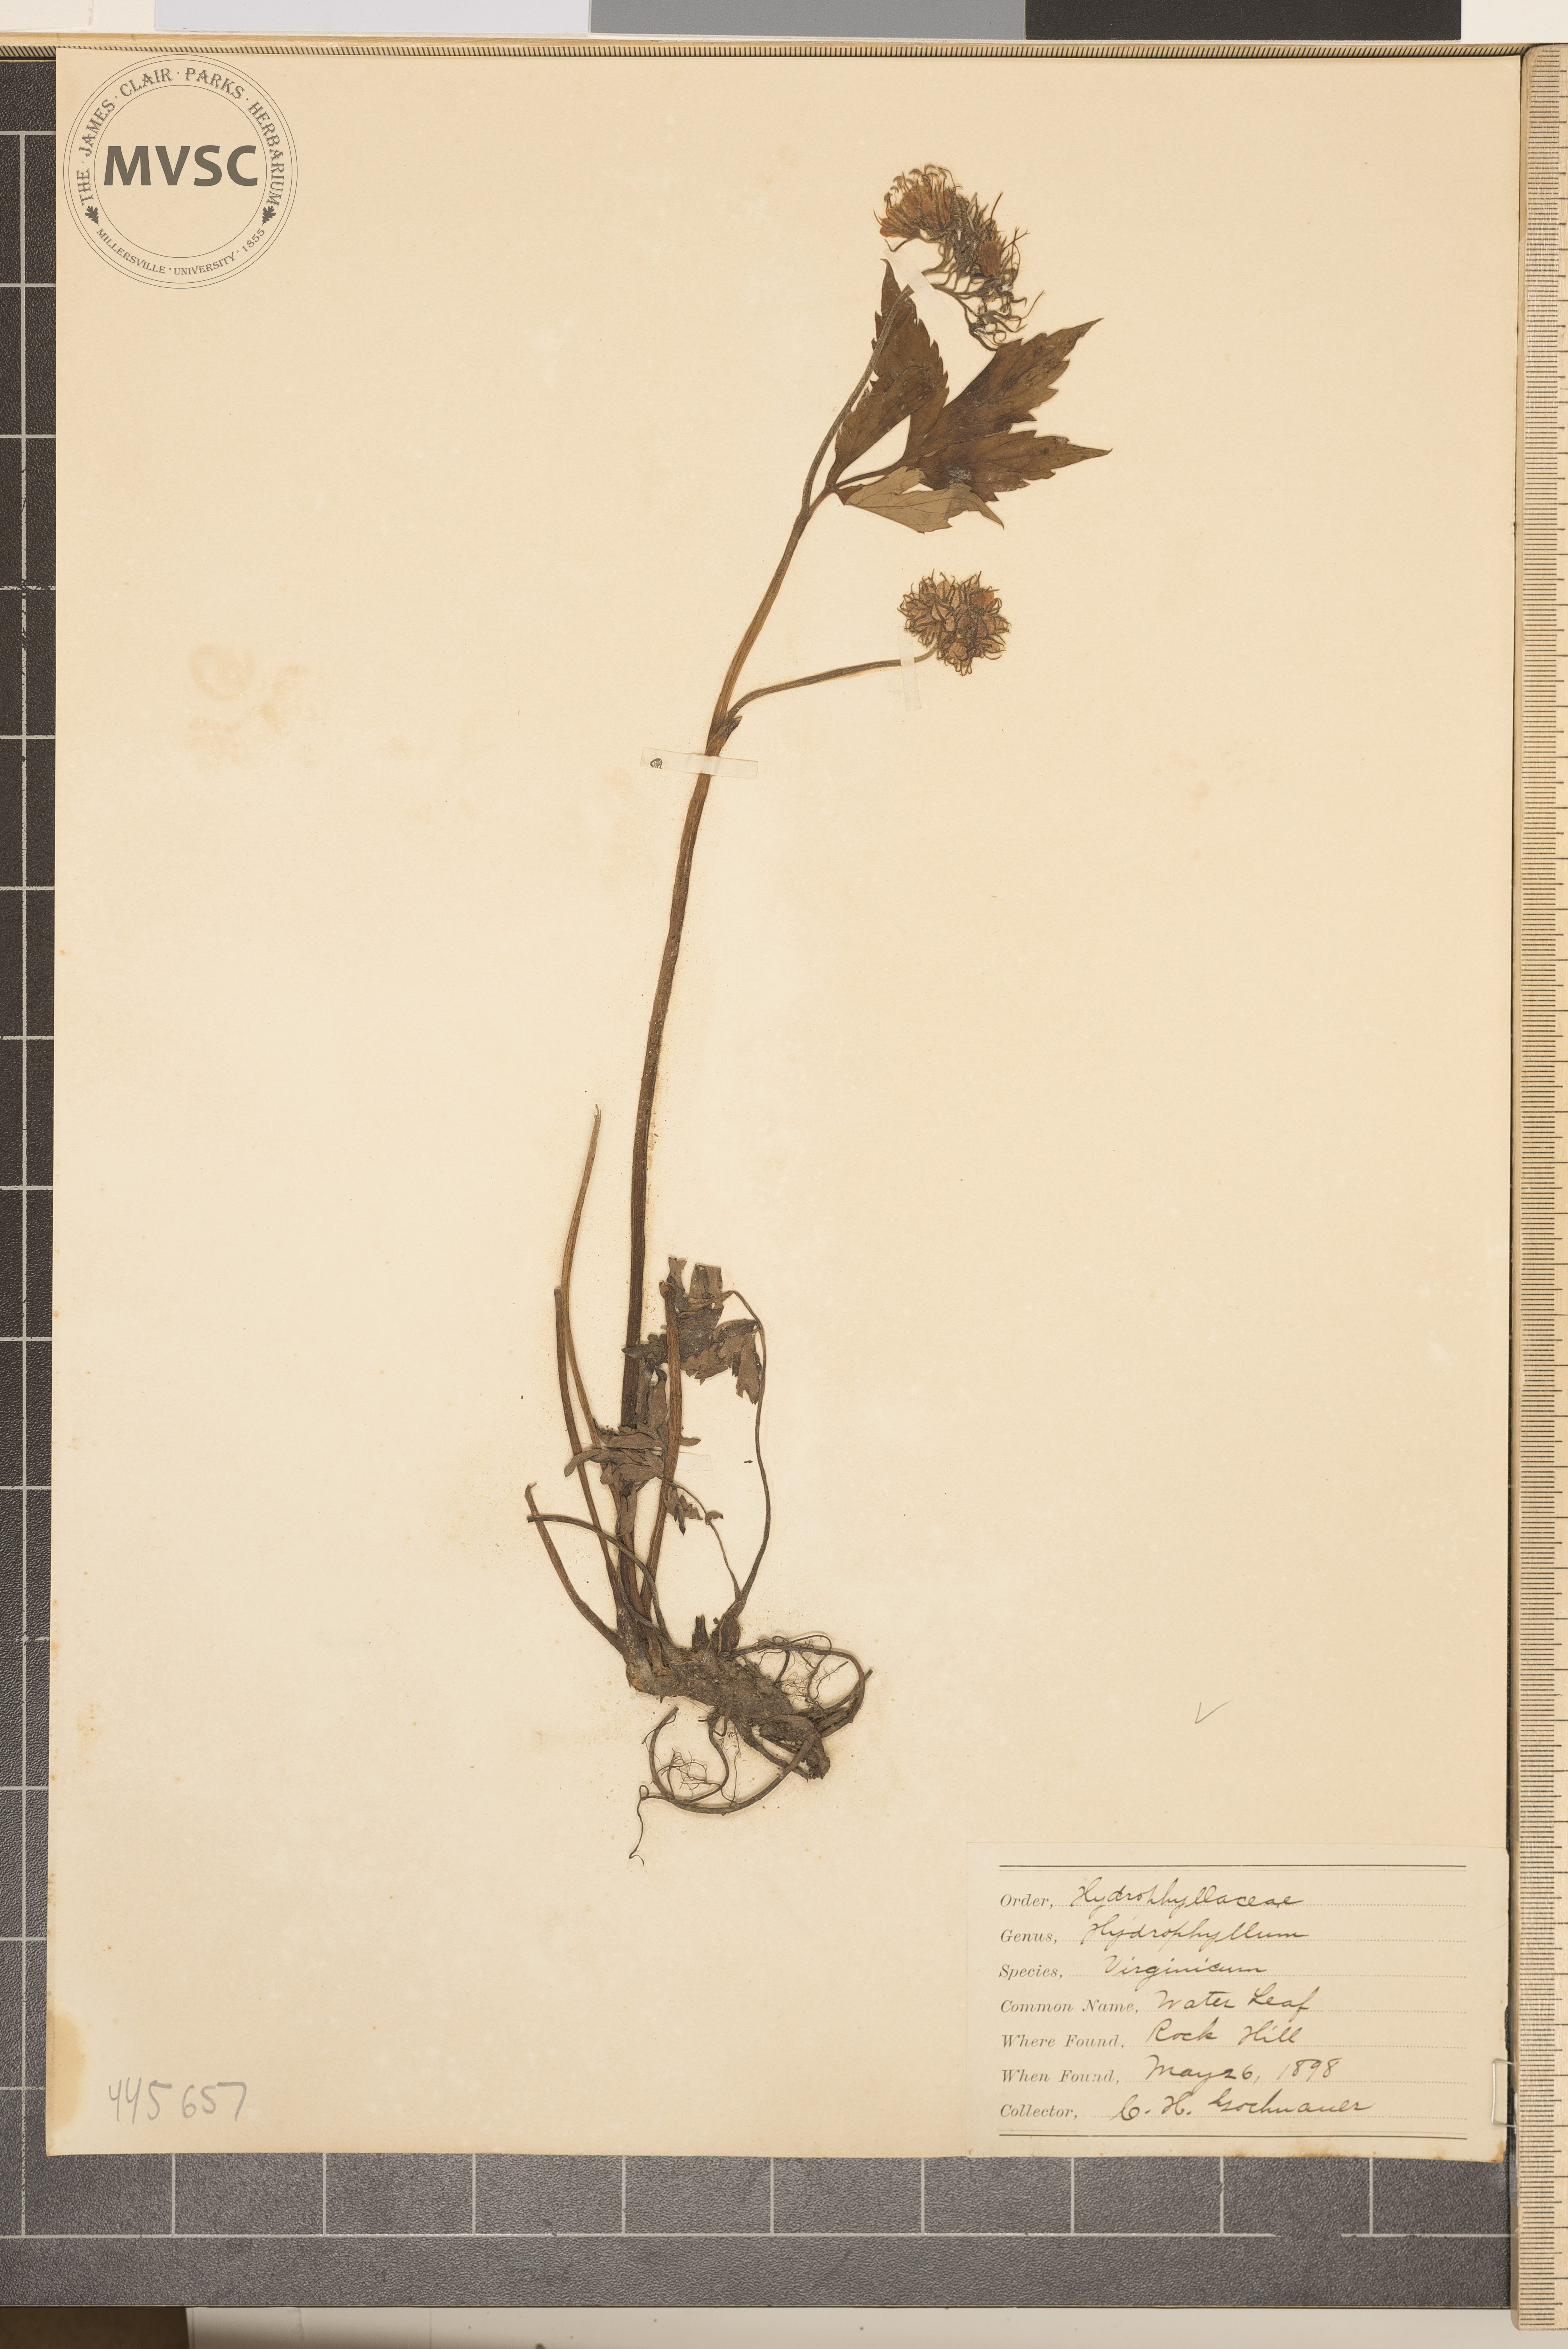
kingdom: Plantae
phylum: Tracheophyta
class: Magnoliopsida
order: Boraginales
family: Hydrophyllaceae
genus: Hydrophyllum
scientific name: Hydrophyllum virginianum
